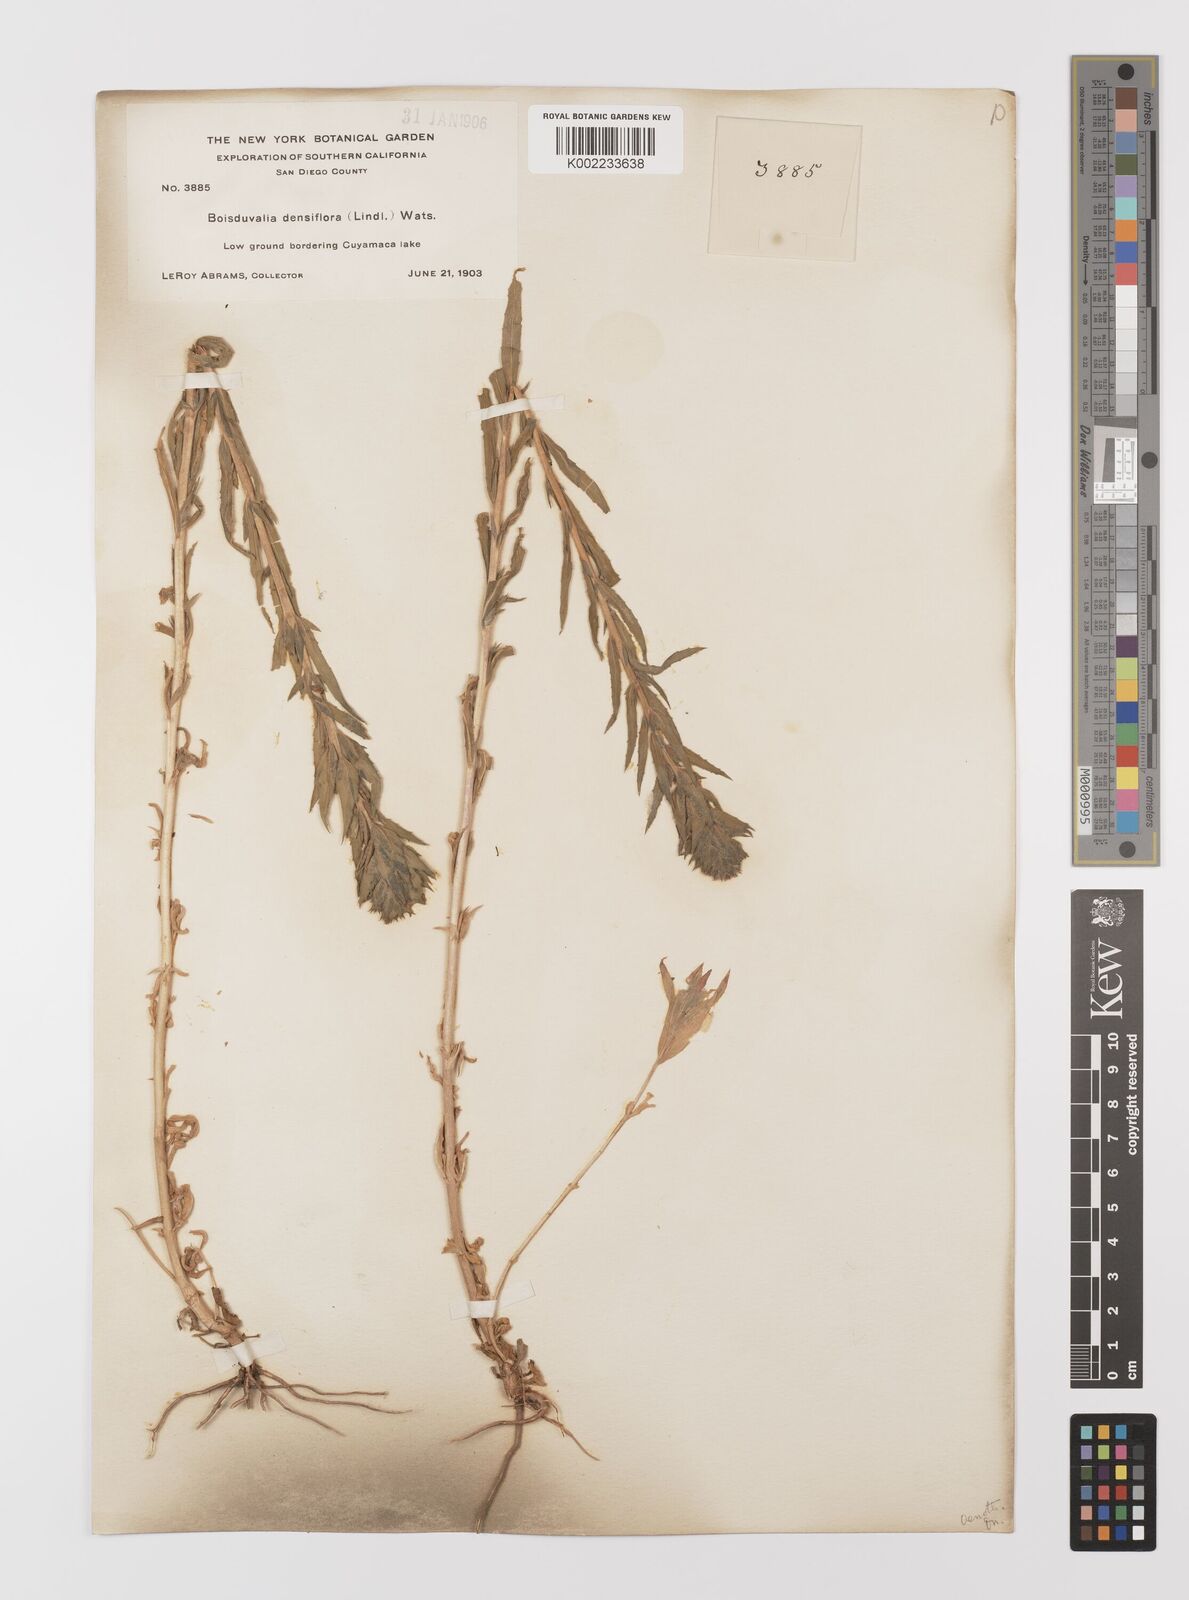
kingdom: Plantae
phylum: Tracheophyta
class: Magnoliopsida
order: Myrtales
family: Onagraceae
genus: Epilobium
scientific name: Epilobium densiflorum
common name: Dense spike-primrose
